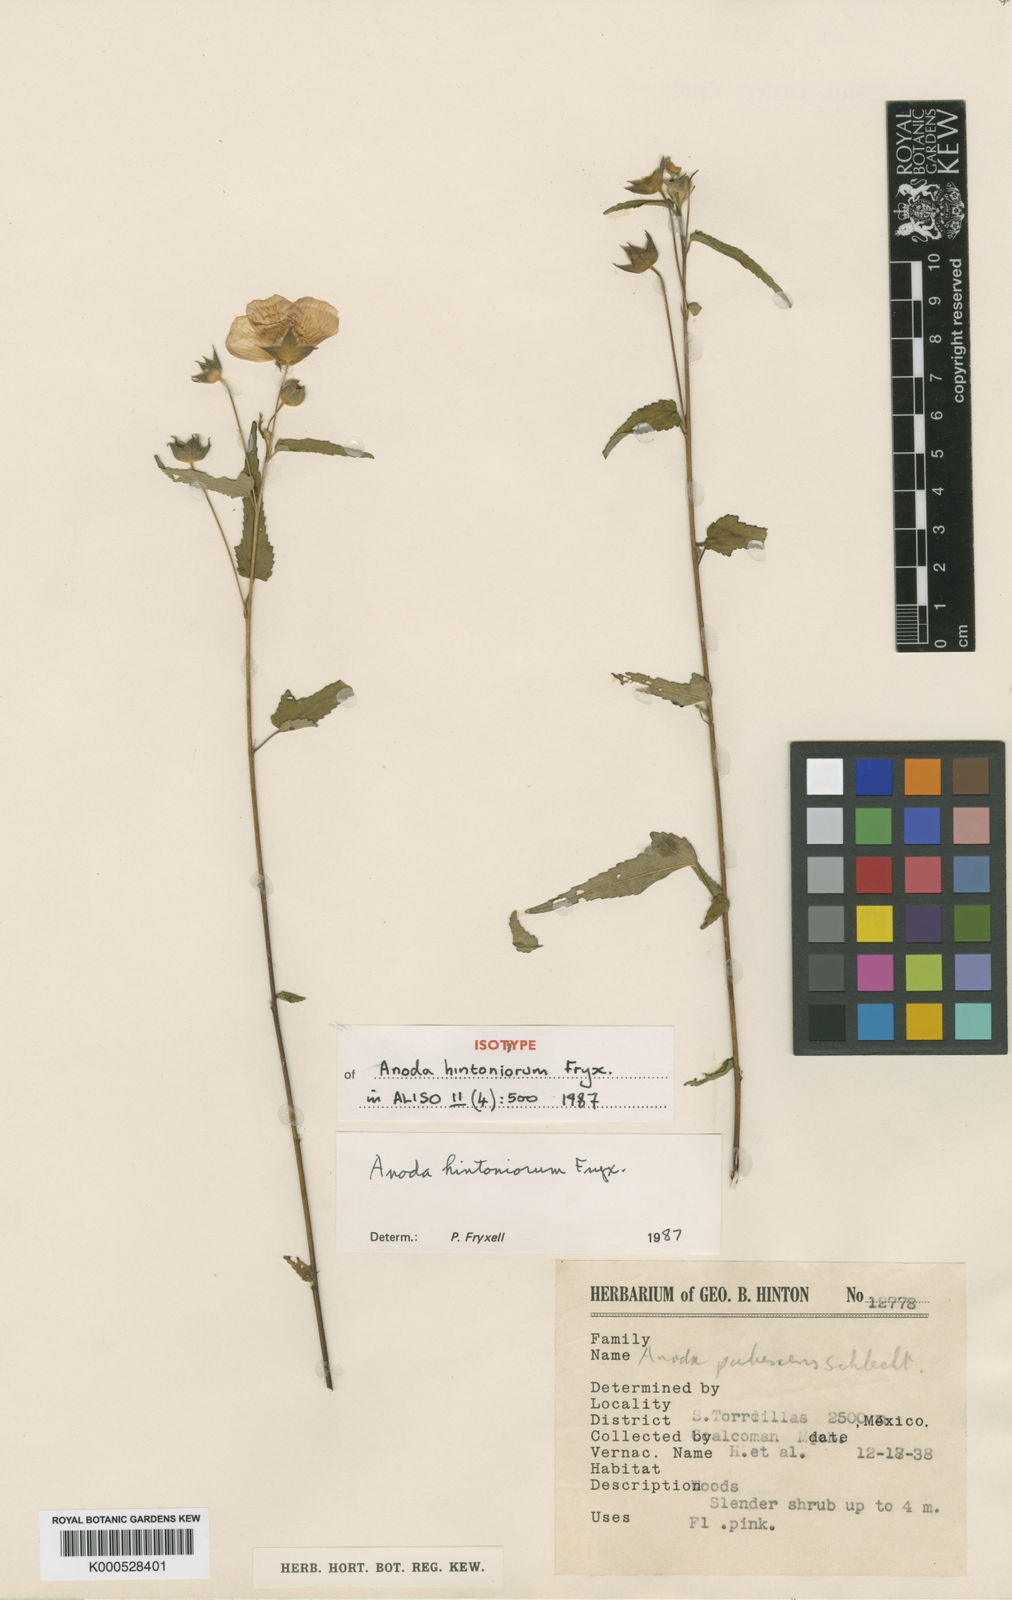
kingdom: Plantae
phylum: Tracheophyta
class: Magnoliopsida
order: Malvales
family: Malvaceae
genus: Anoda
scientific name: Anoda hintoniorum
